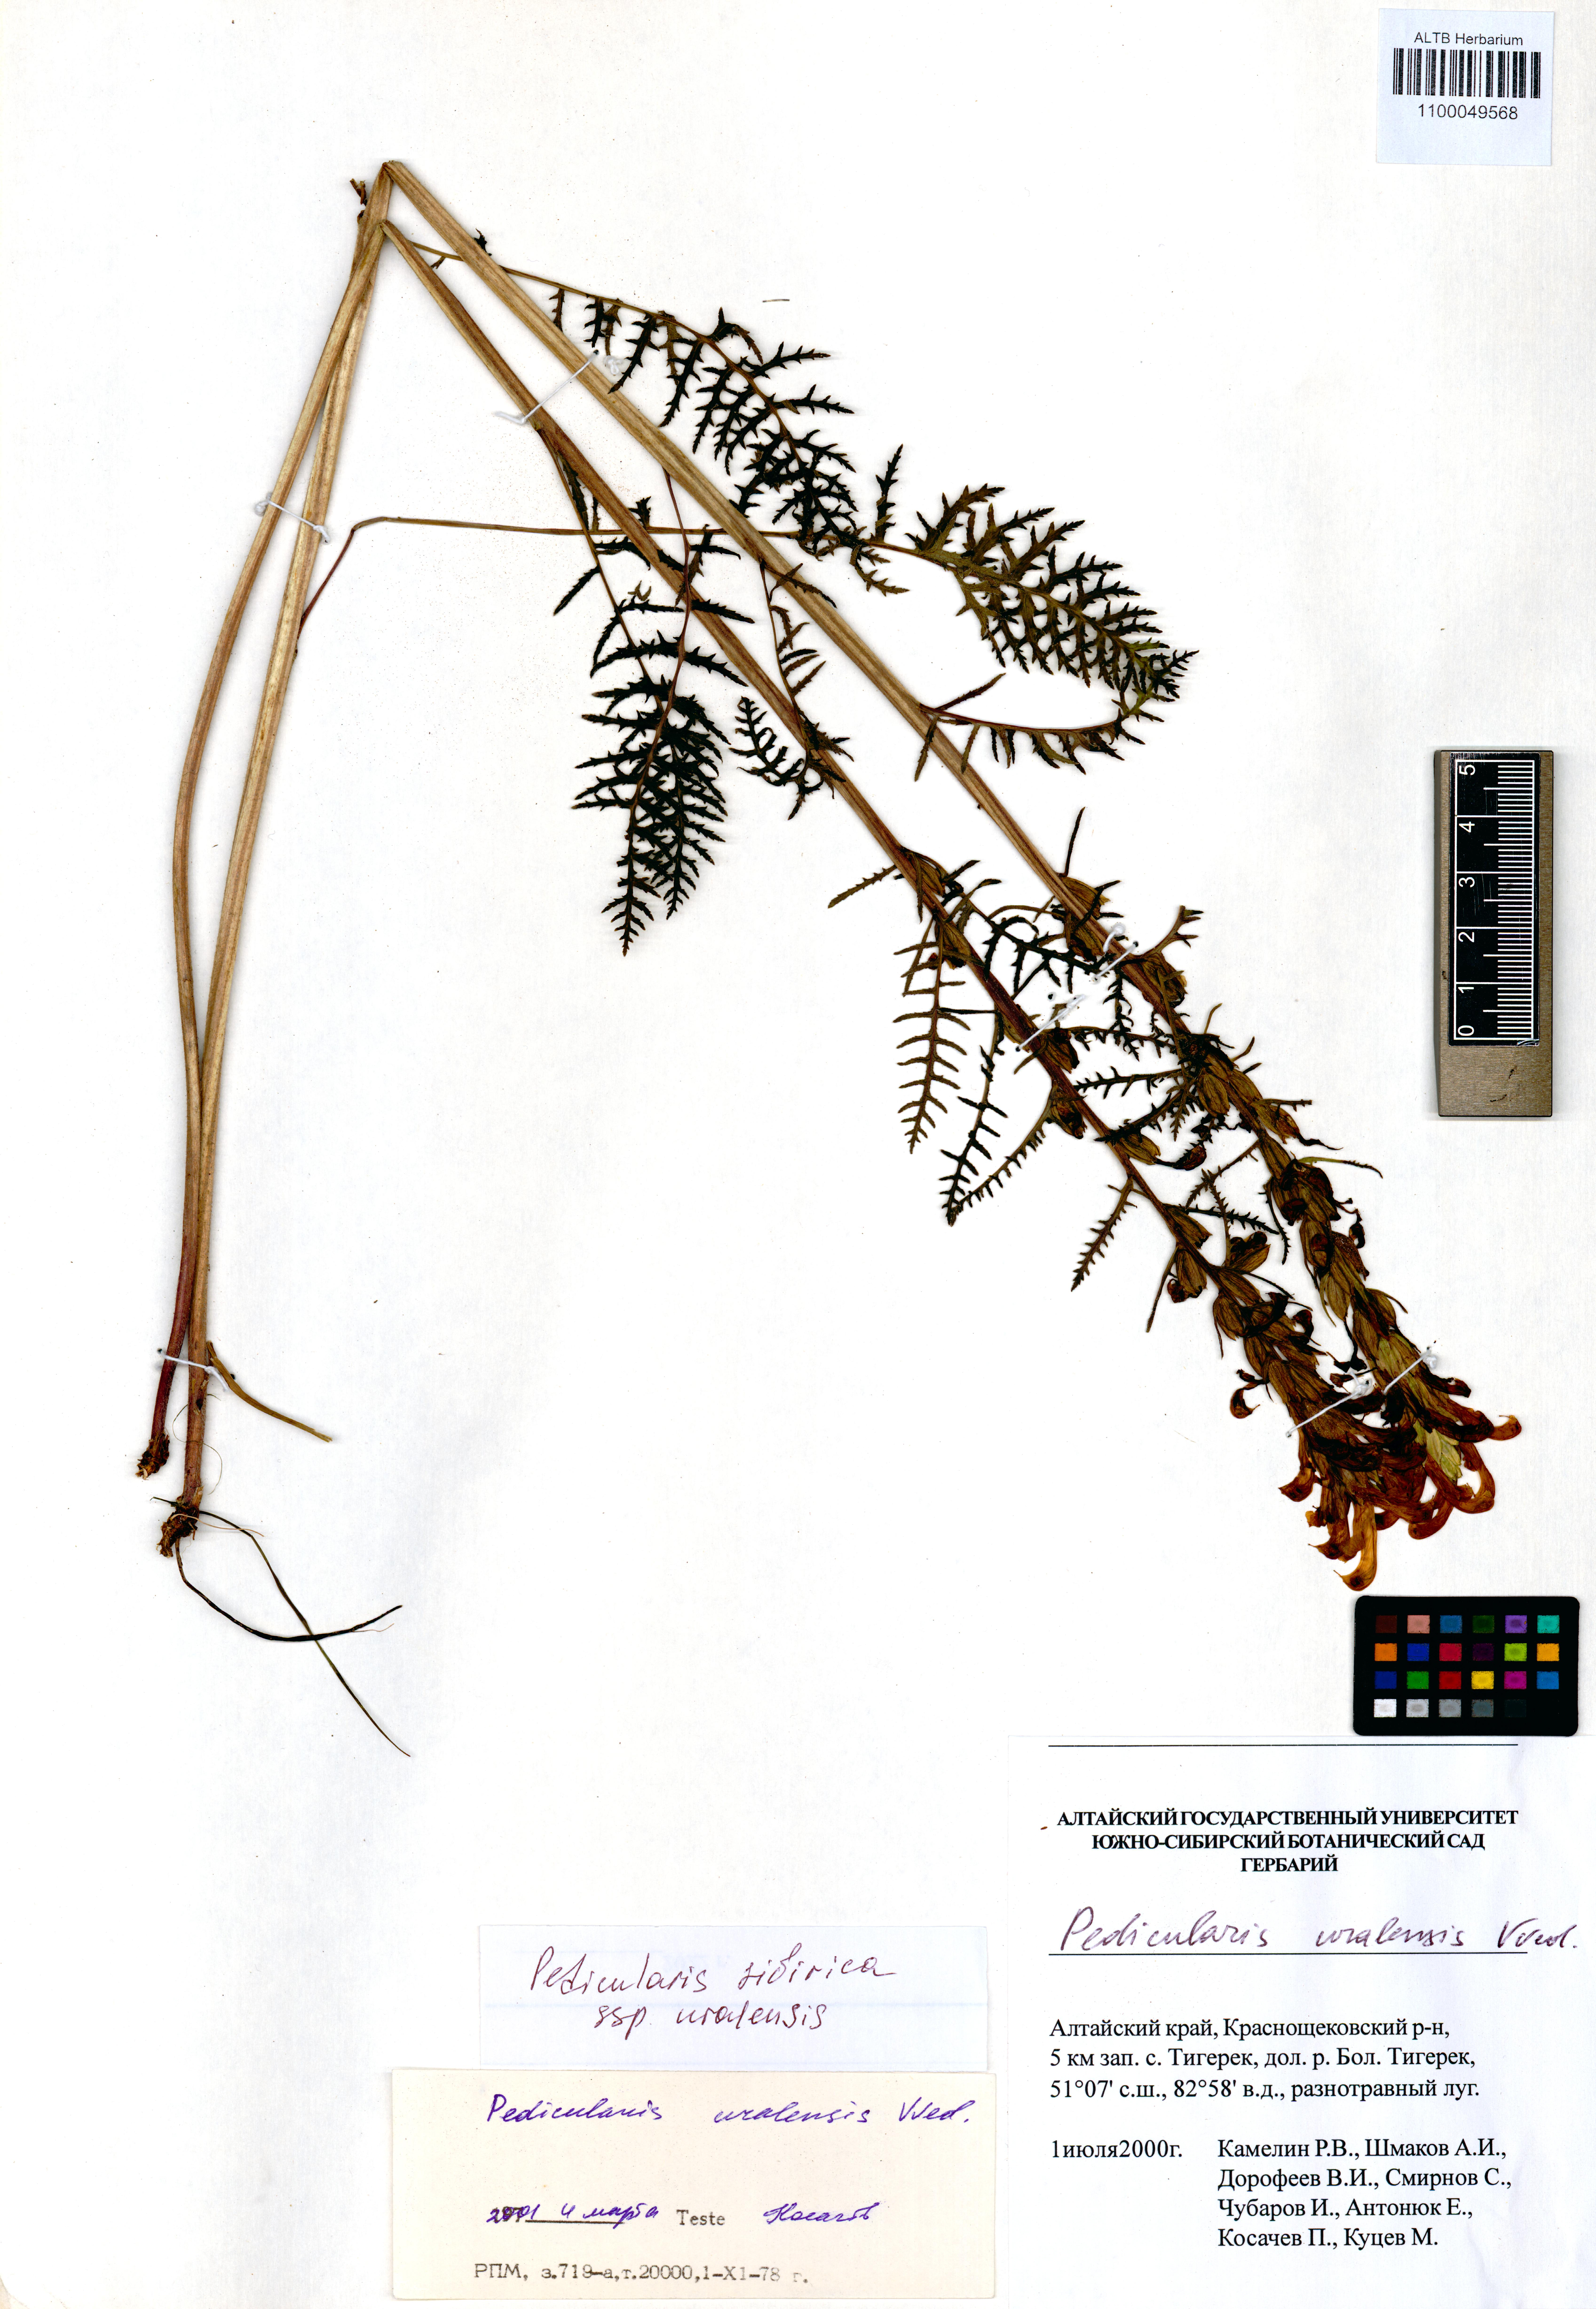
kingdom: Plantae
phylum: Tracheophyta
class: Magnoliopsida
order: Lamiales
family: Orobanchaceae
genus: Pedicularis
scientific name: Pedicularis uralensis
